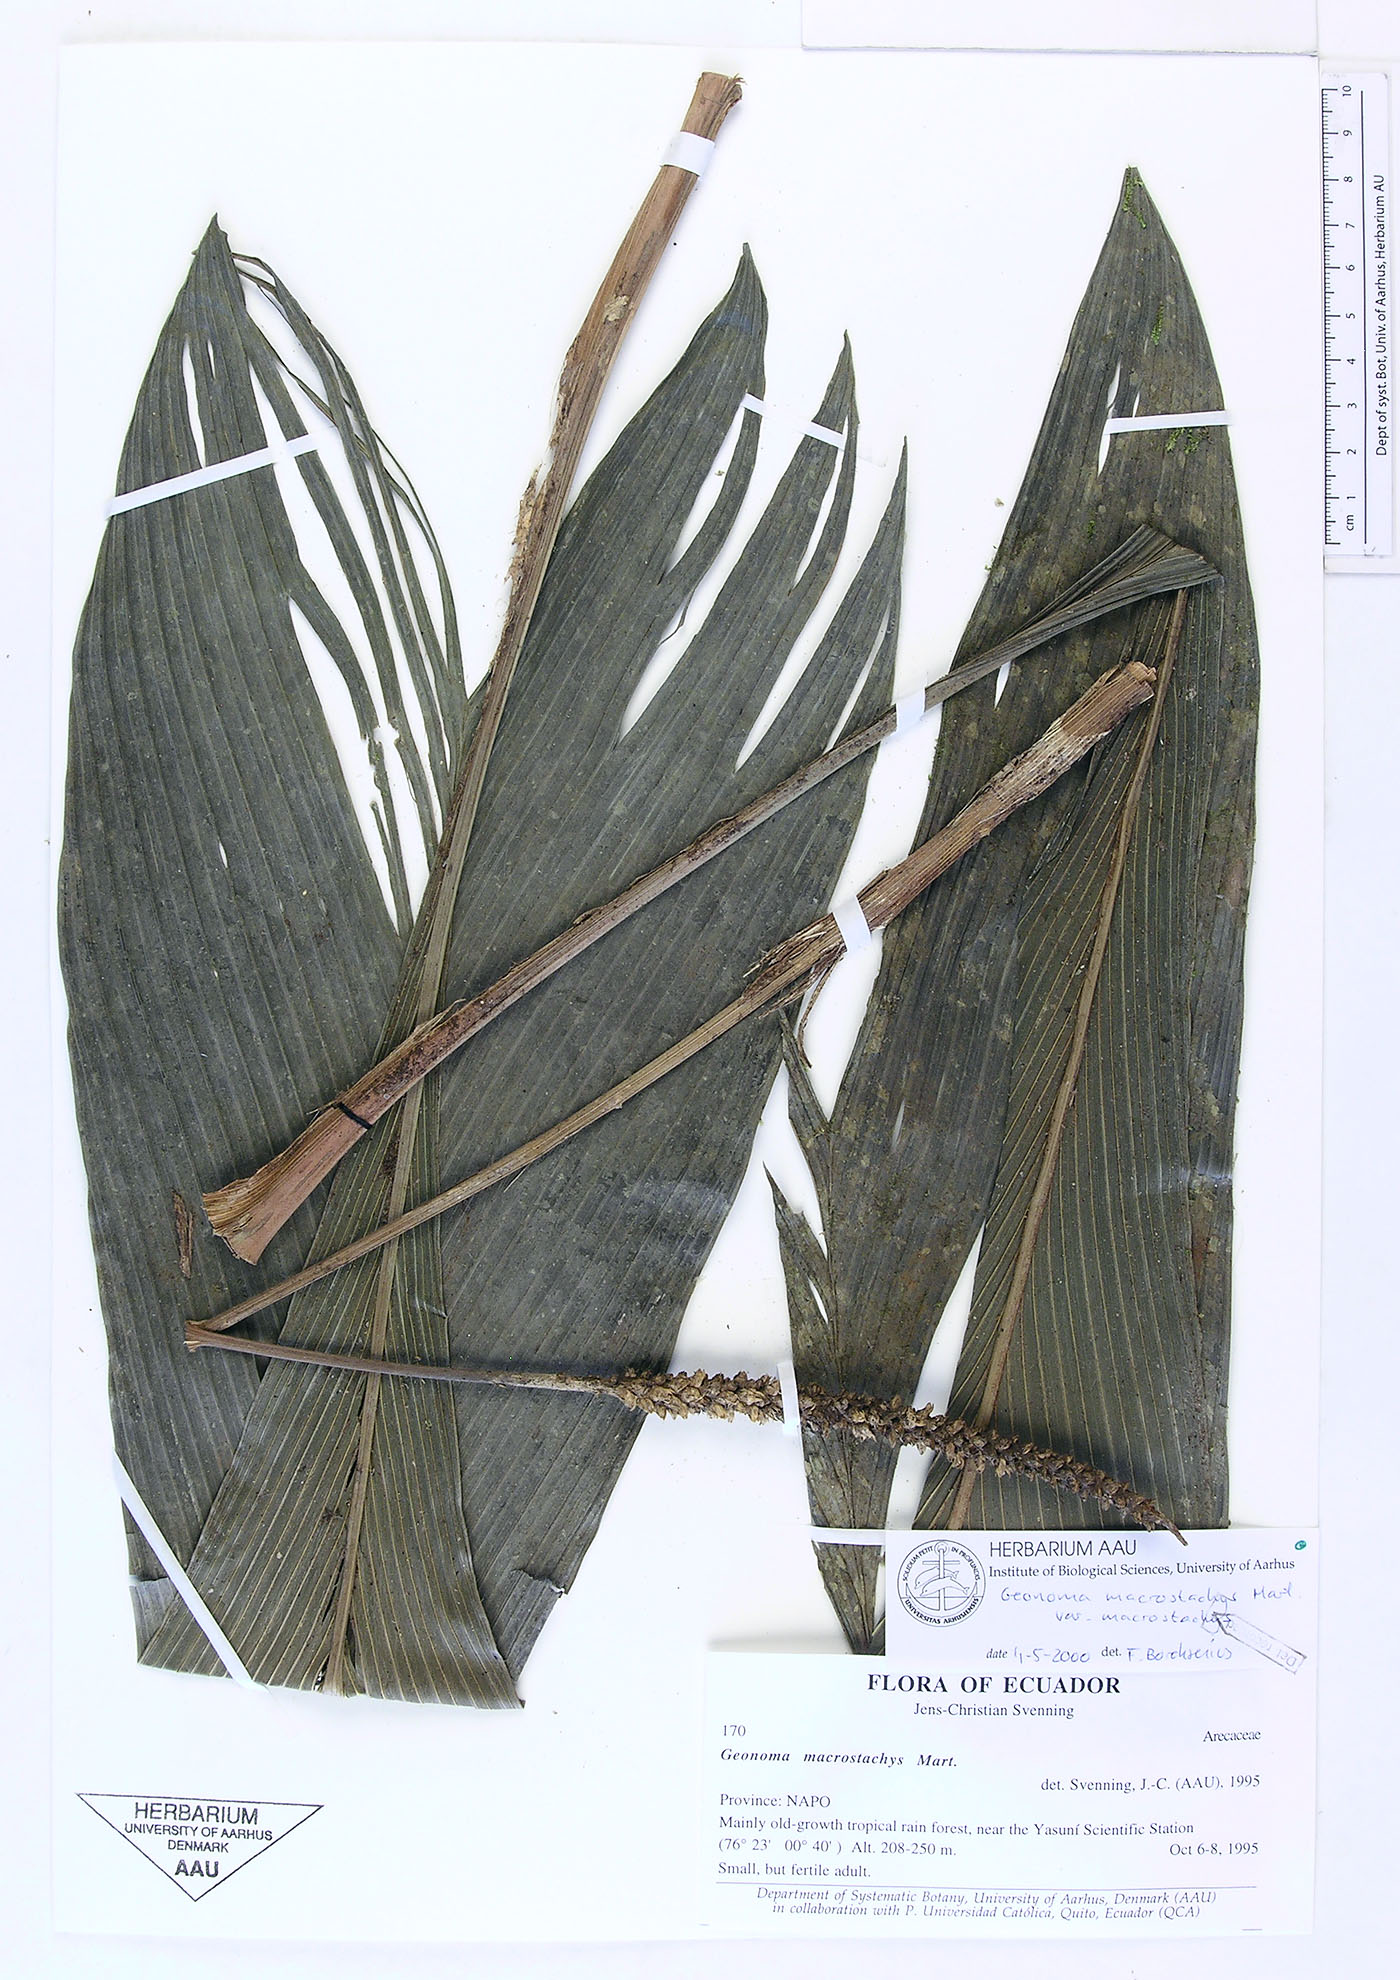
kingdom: Plantae
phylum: Tracheophyta
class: Liliopsida
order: Arecales
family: Arecaceae
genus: Geonoma
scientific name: Geonoma macrostachys
